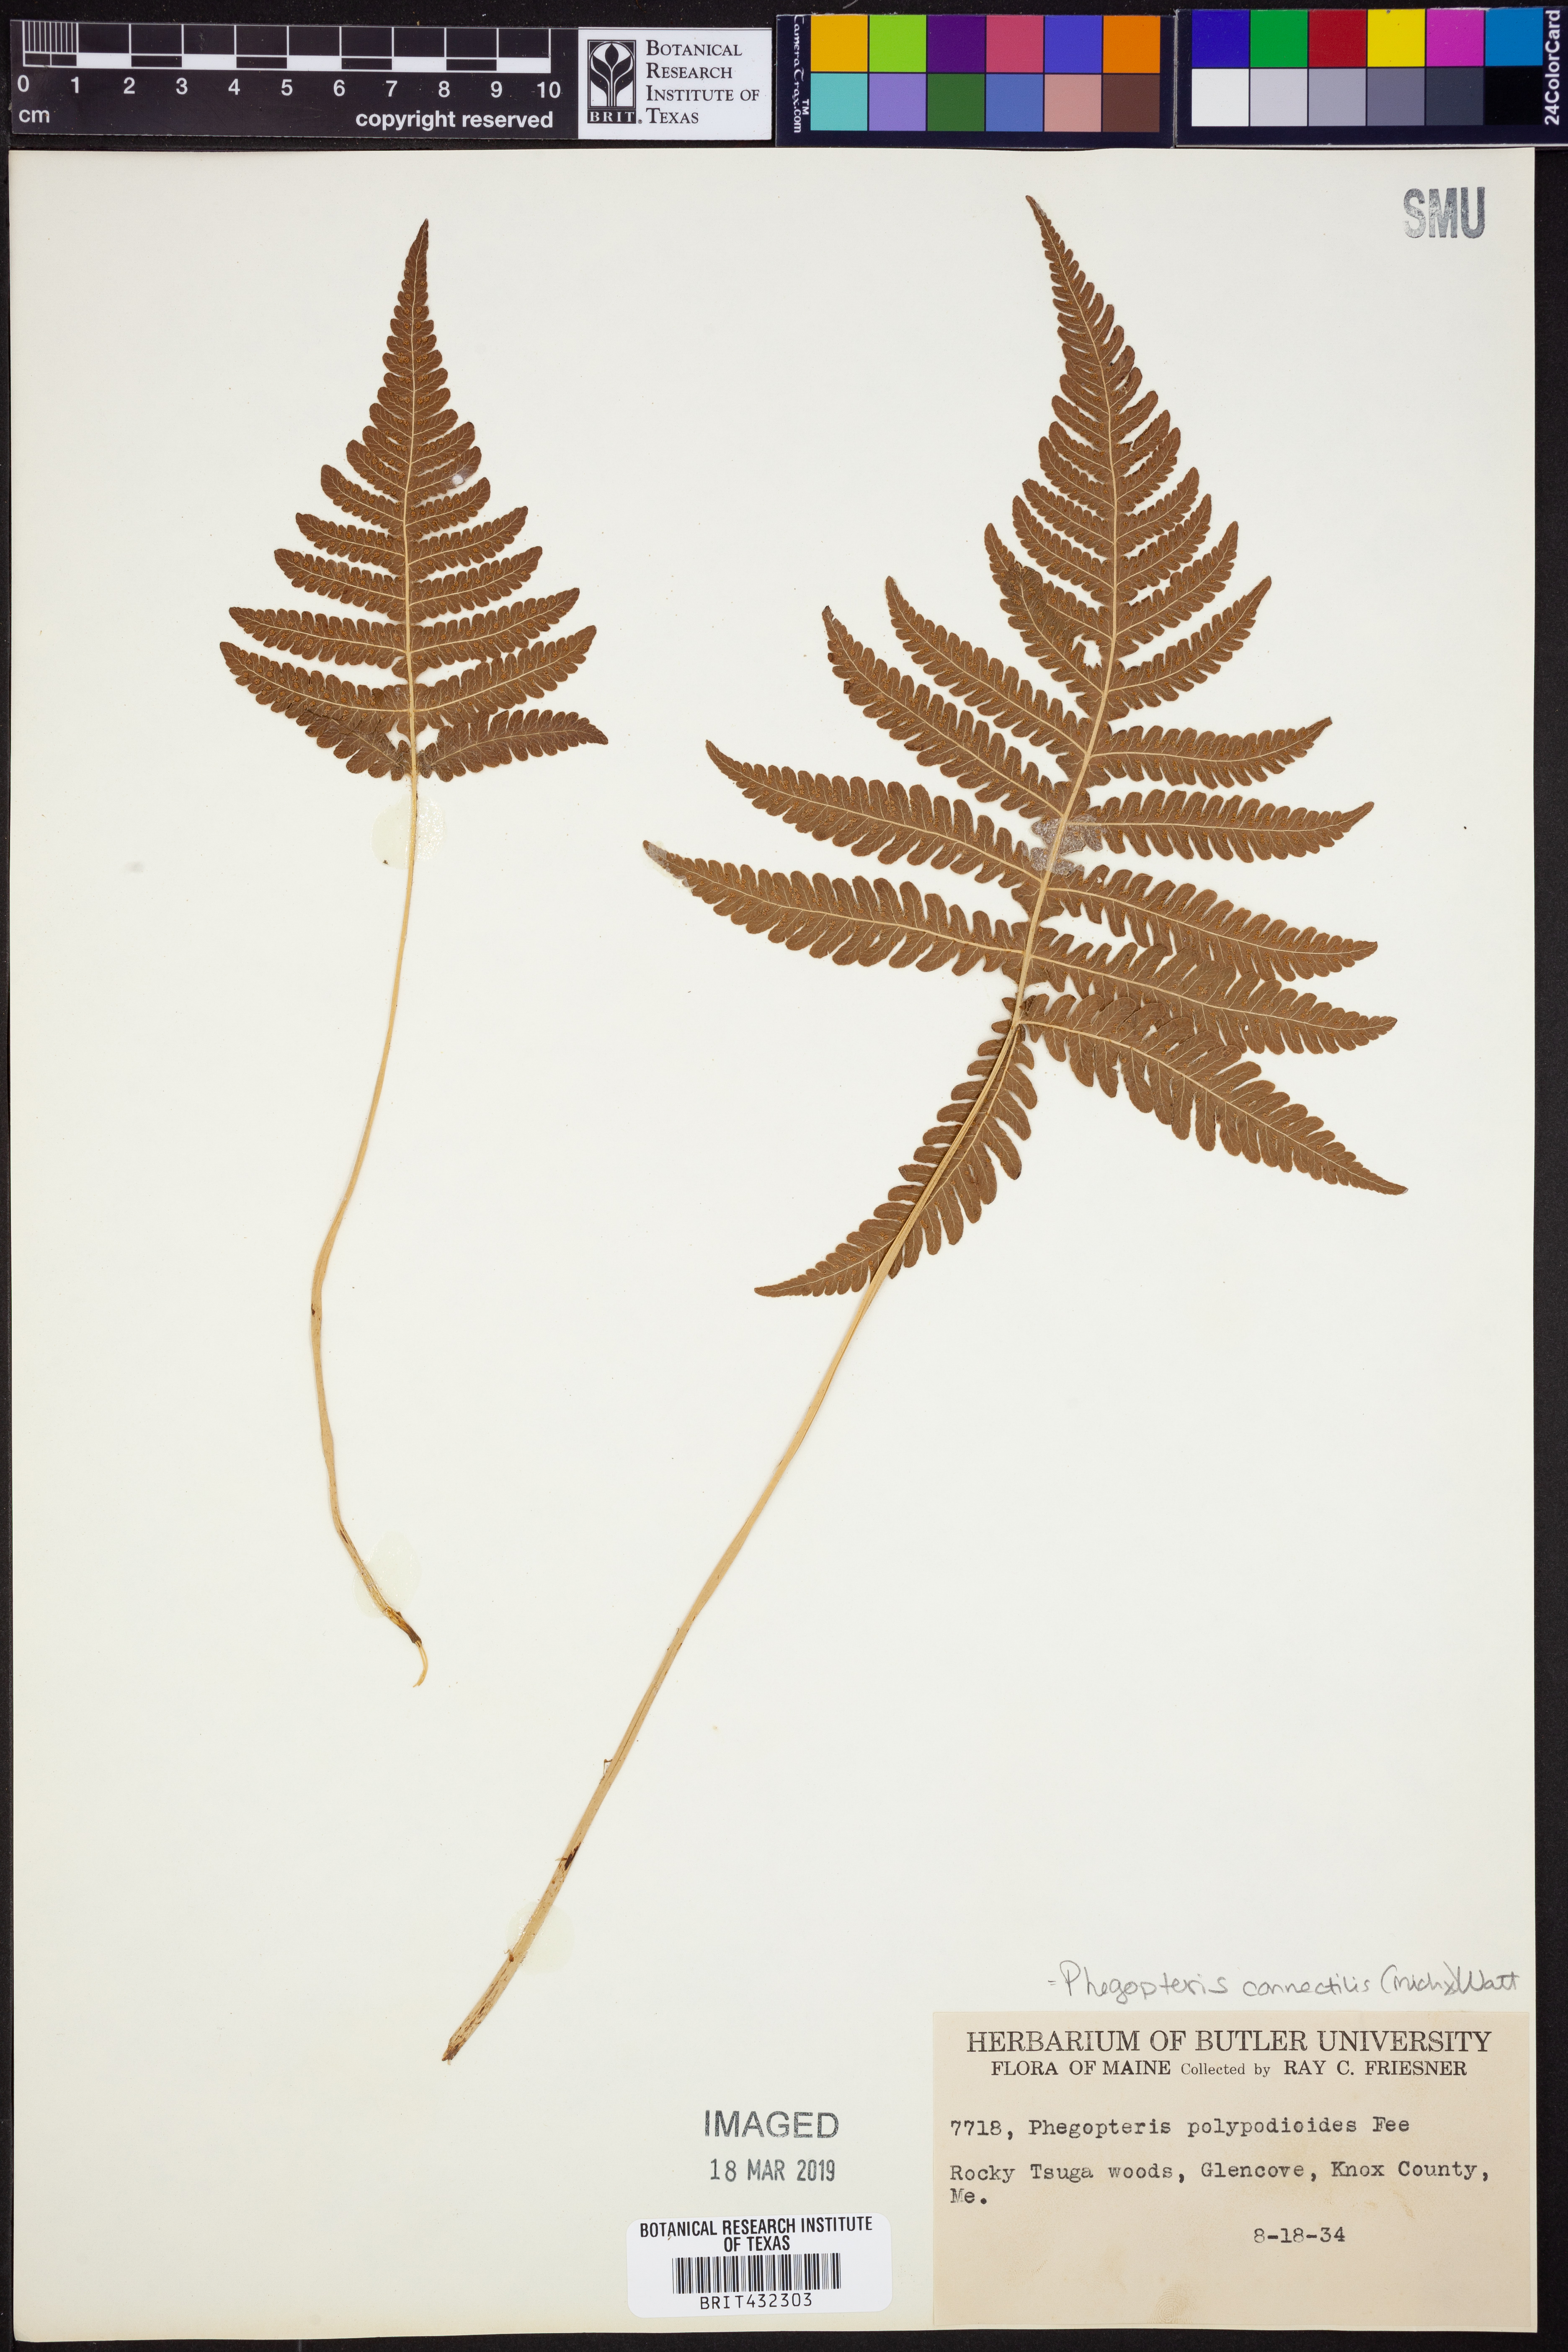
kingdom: Plantae
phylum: Tracheophyta
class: Polypodiopsida
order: Polypodiales
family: Thelypteridaceae
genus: Phegopteris
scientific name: Phegopteris connectilis
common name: Beech fern
